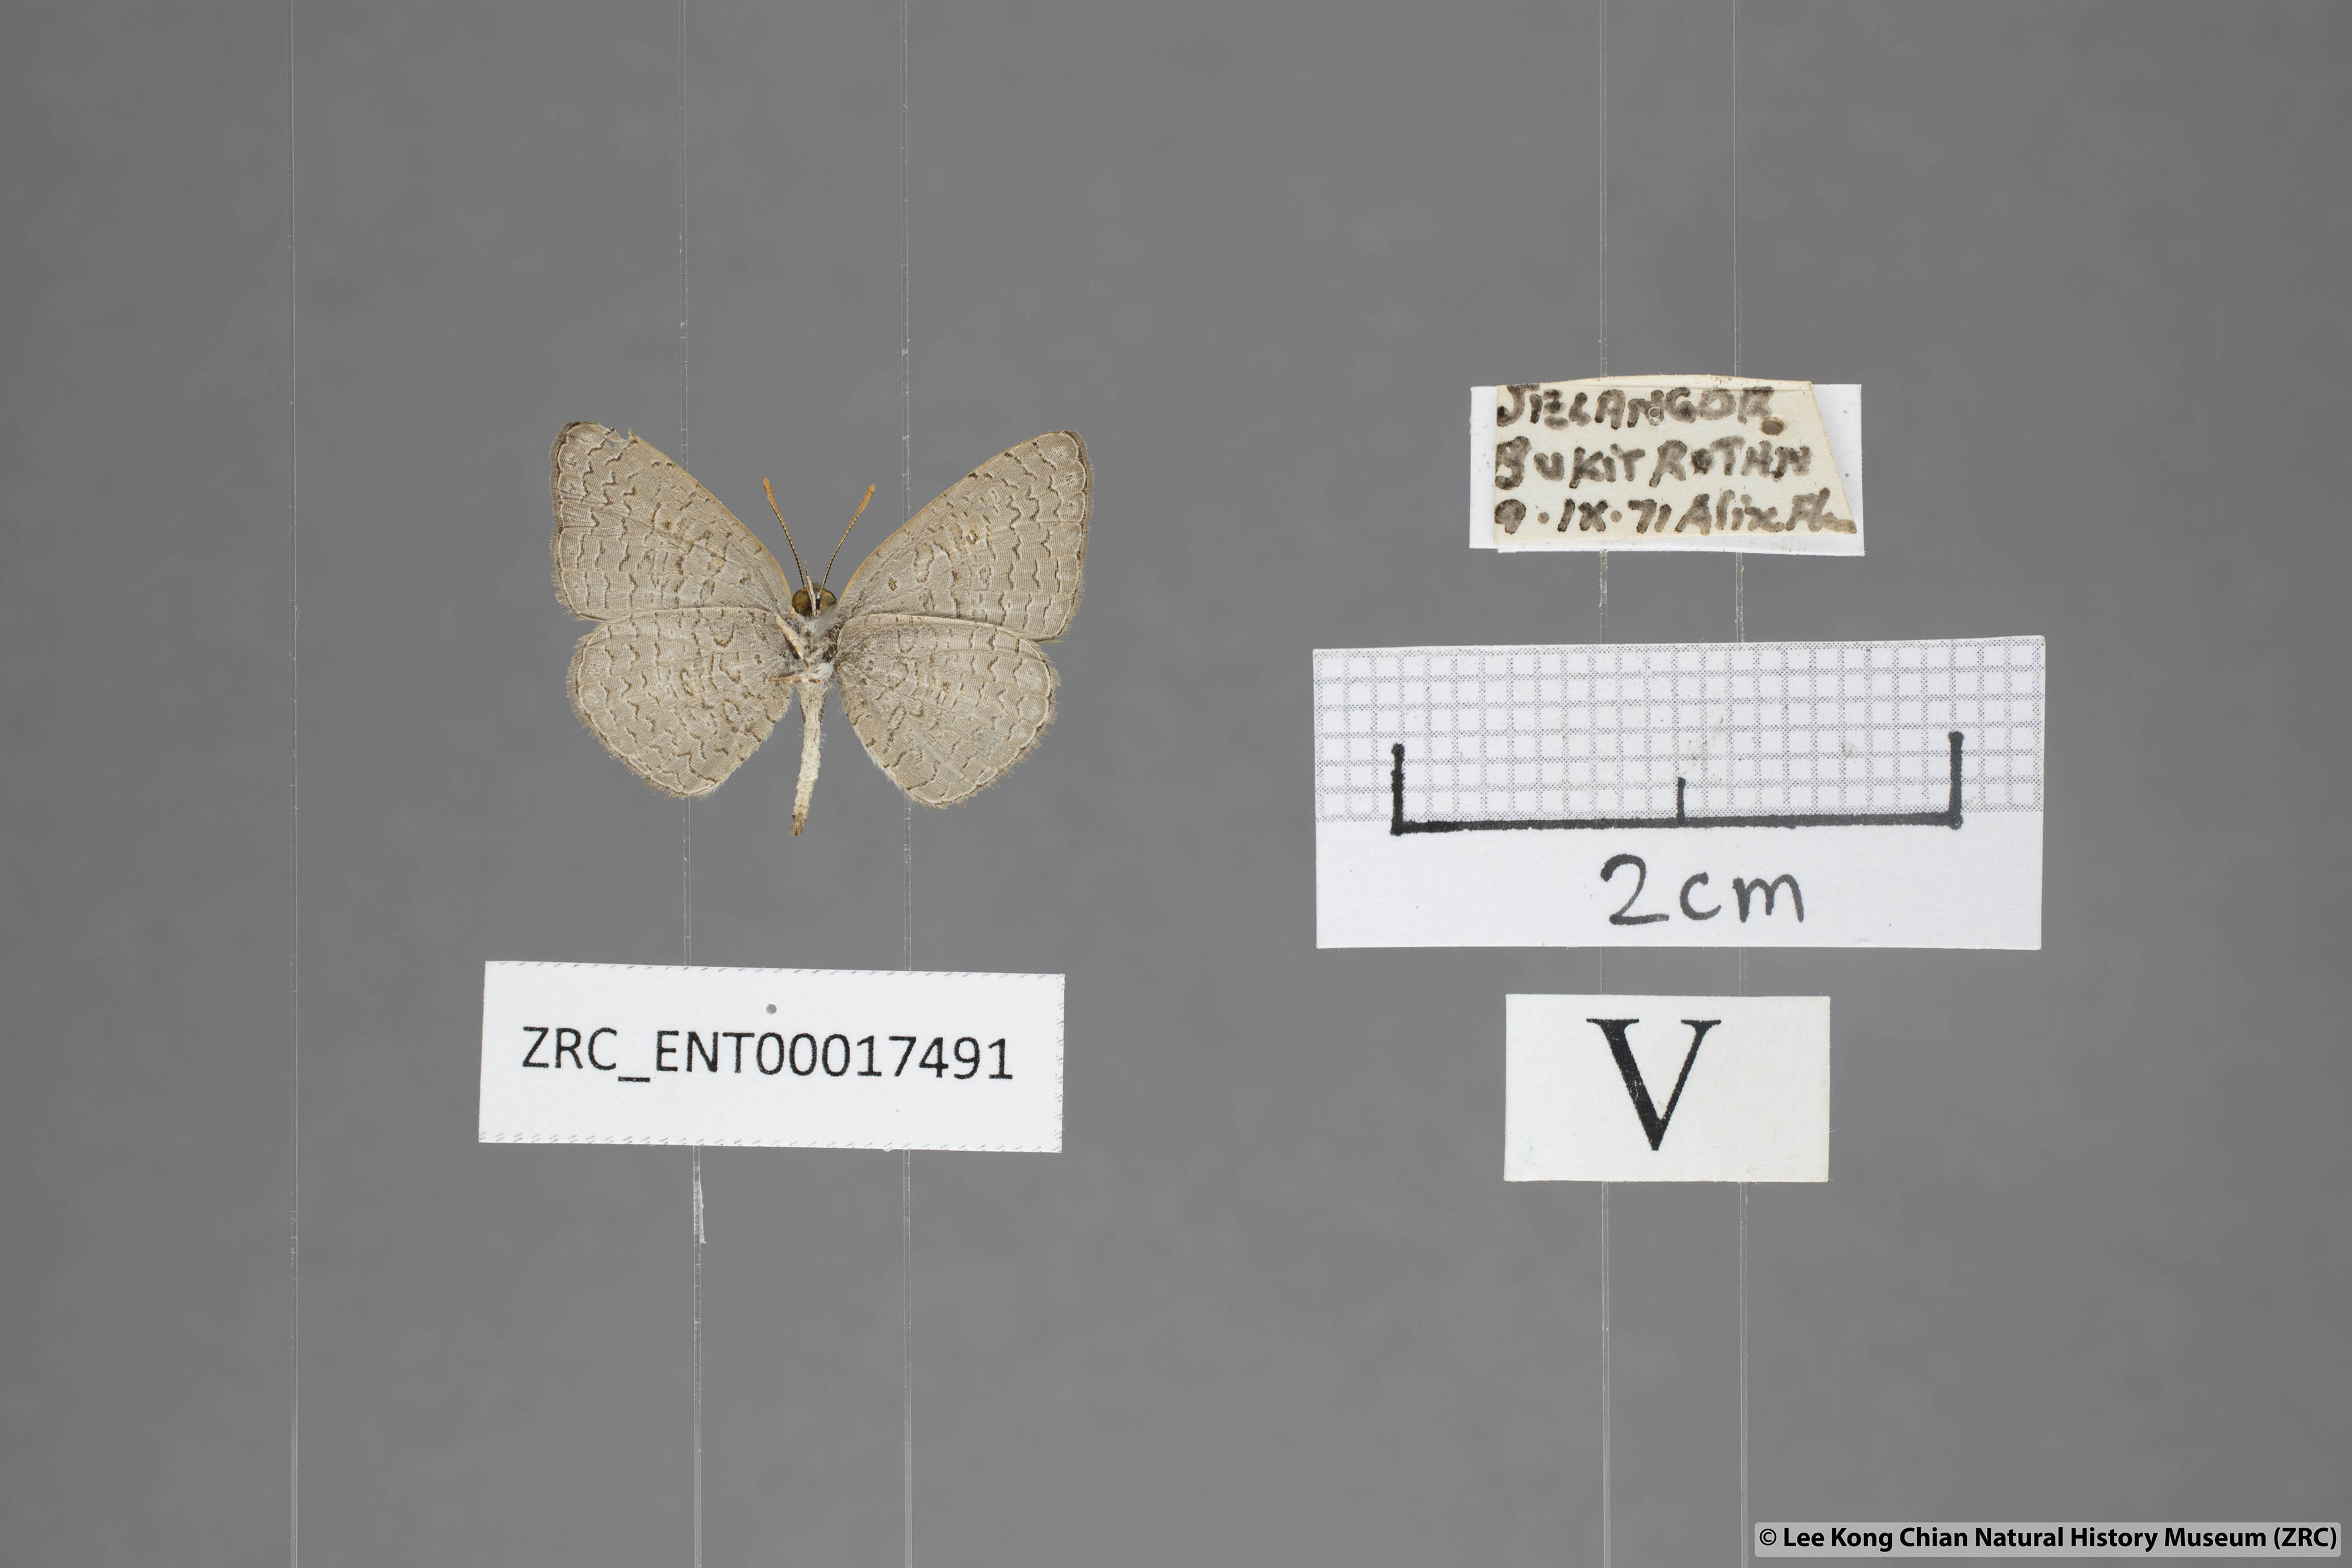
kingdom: Animalia
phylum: Arthropoda
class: Insecta
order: Lepidoptera
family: Lycaenidae
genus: Spalgis
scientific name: Spalgis epeus
